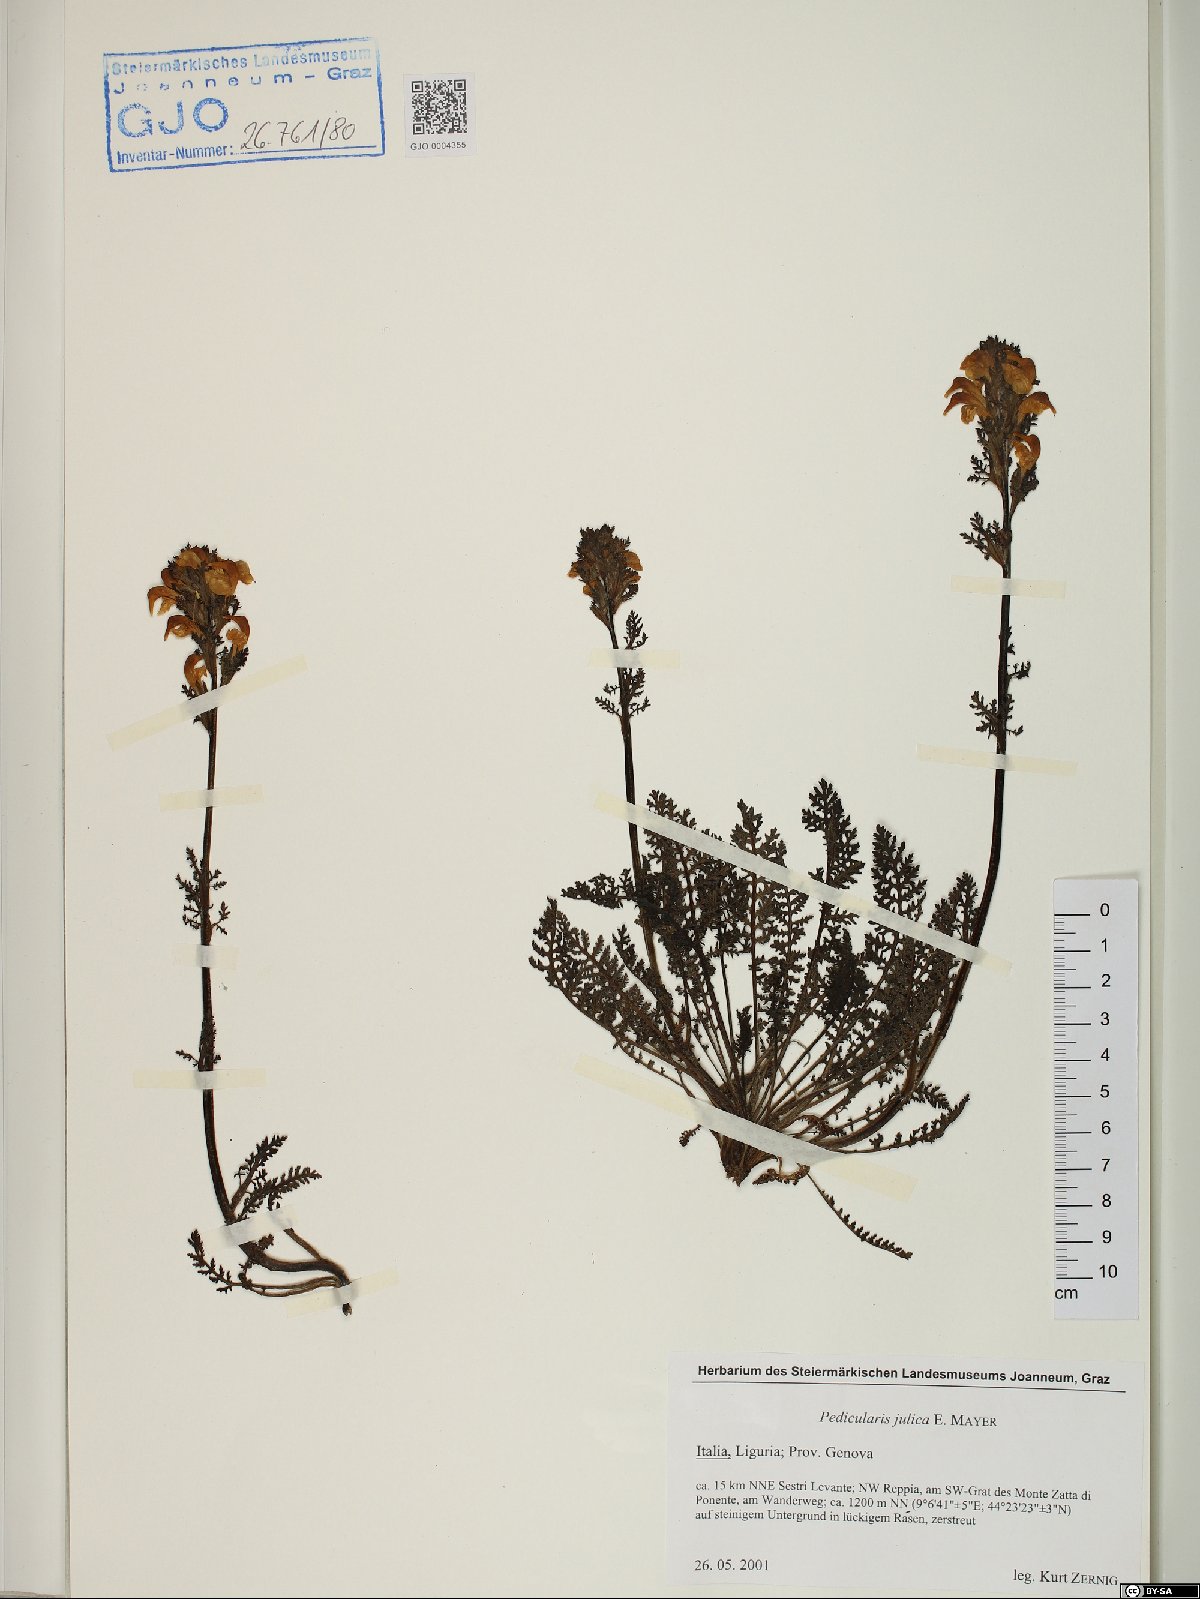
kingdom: Plantae
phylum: Tracheophyta
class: Magnoliopsida
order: Lamiales
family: Orobanchaceae
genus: Pedicularis
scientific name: Pedicularis julica
